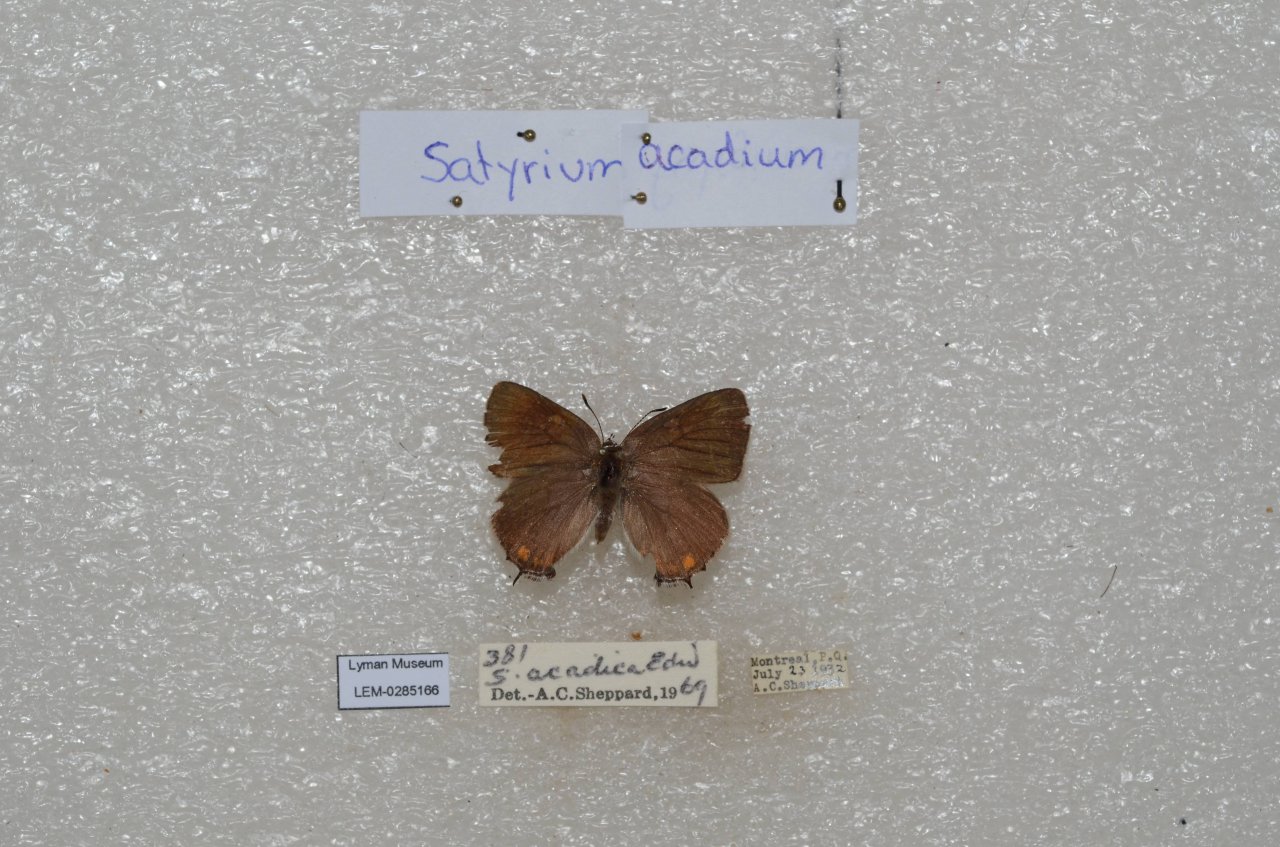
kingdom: Animalia
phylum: Arthropoda
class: Insecta
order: Lepidoptera
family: Lycaenidae
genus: Strymon
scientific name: Strymon acadica
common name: Acadian Hairstreak
